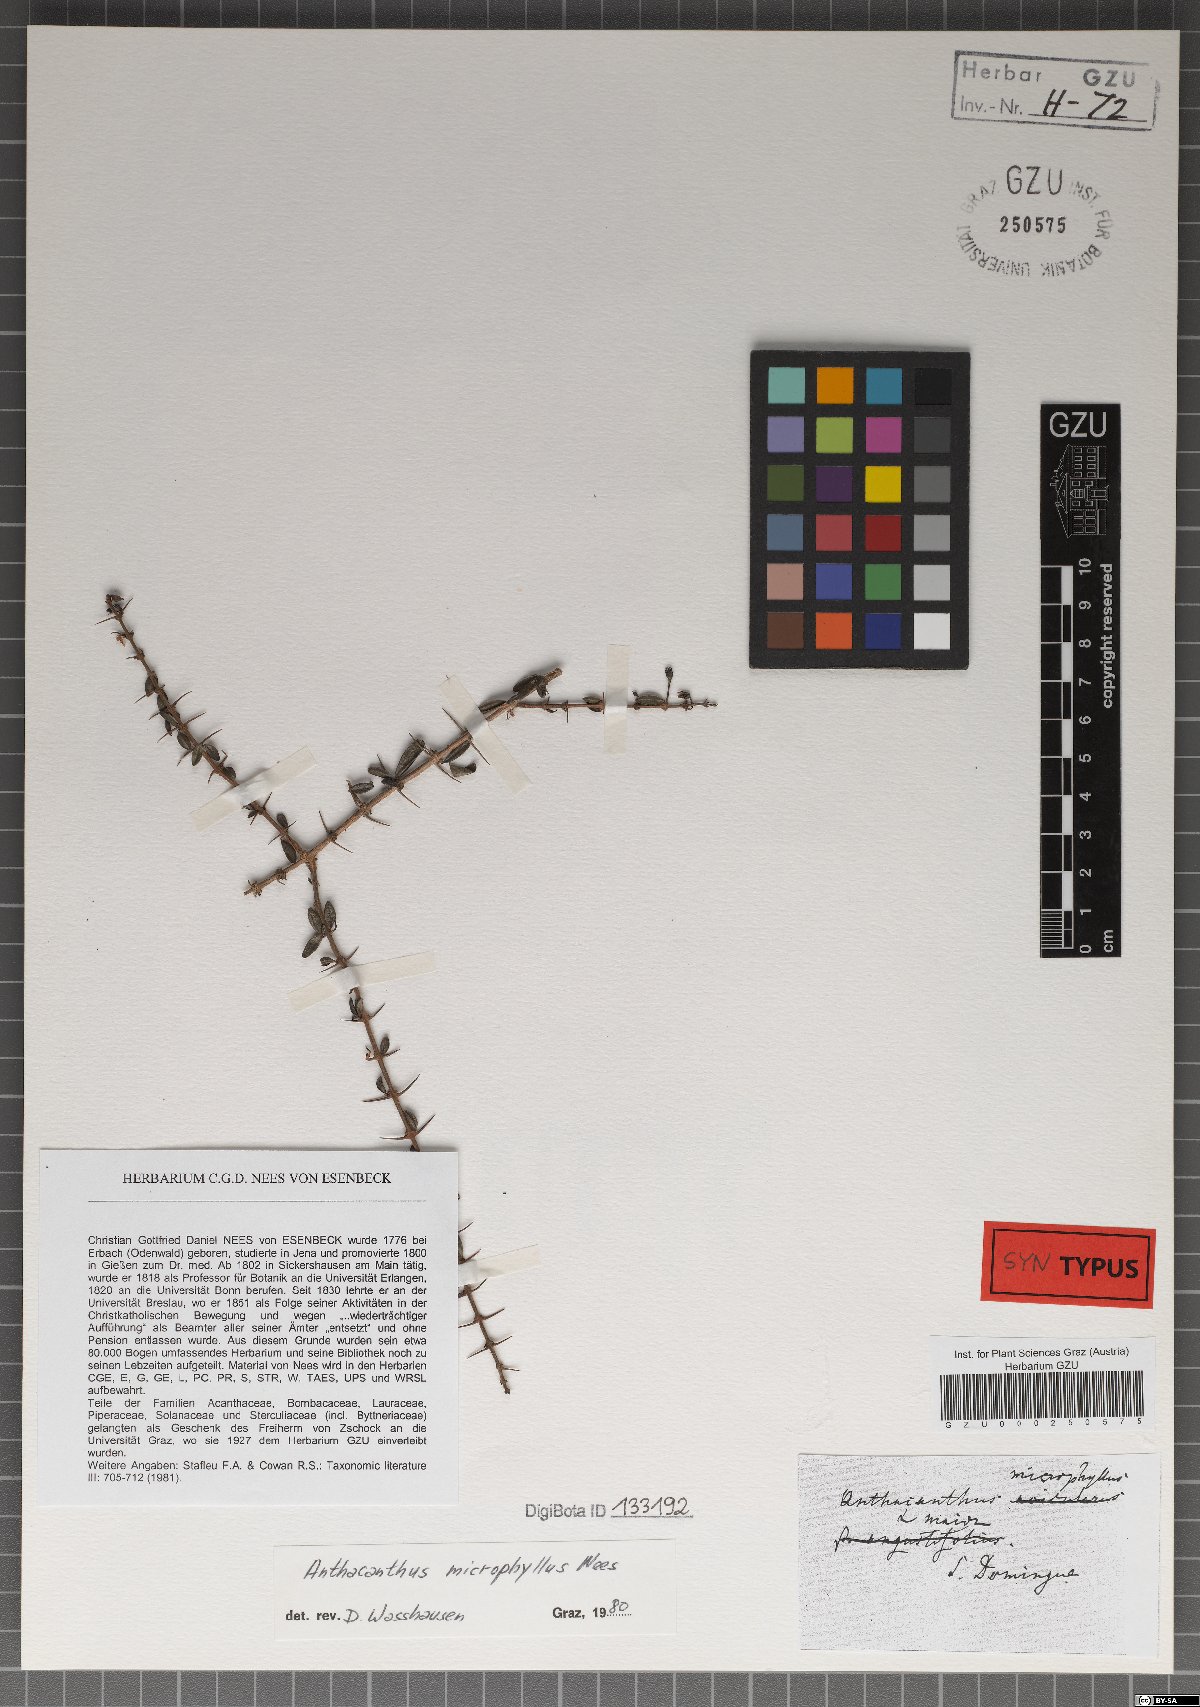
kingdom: Plantae
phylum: Tracheophyta
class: Magnoliopsida
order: Lamiales
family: Acanthaceae
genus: Oplonia
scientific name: Oplonia microphylla
